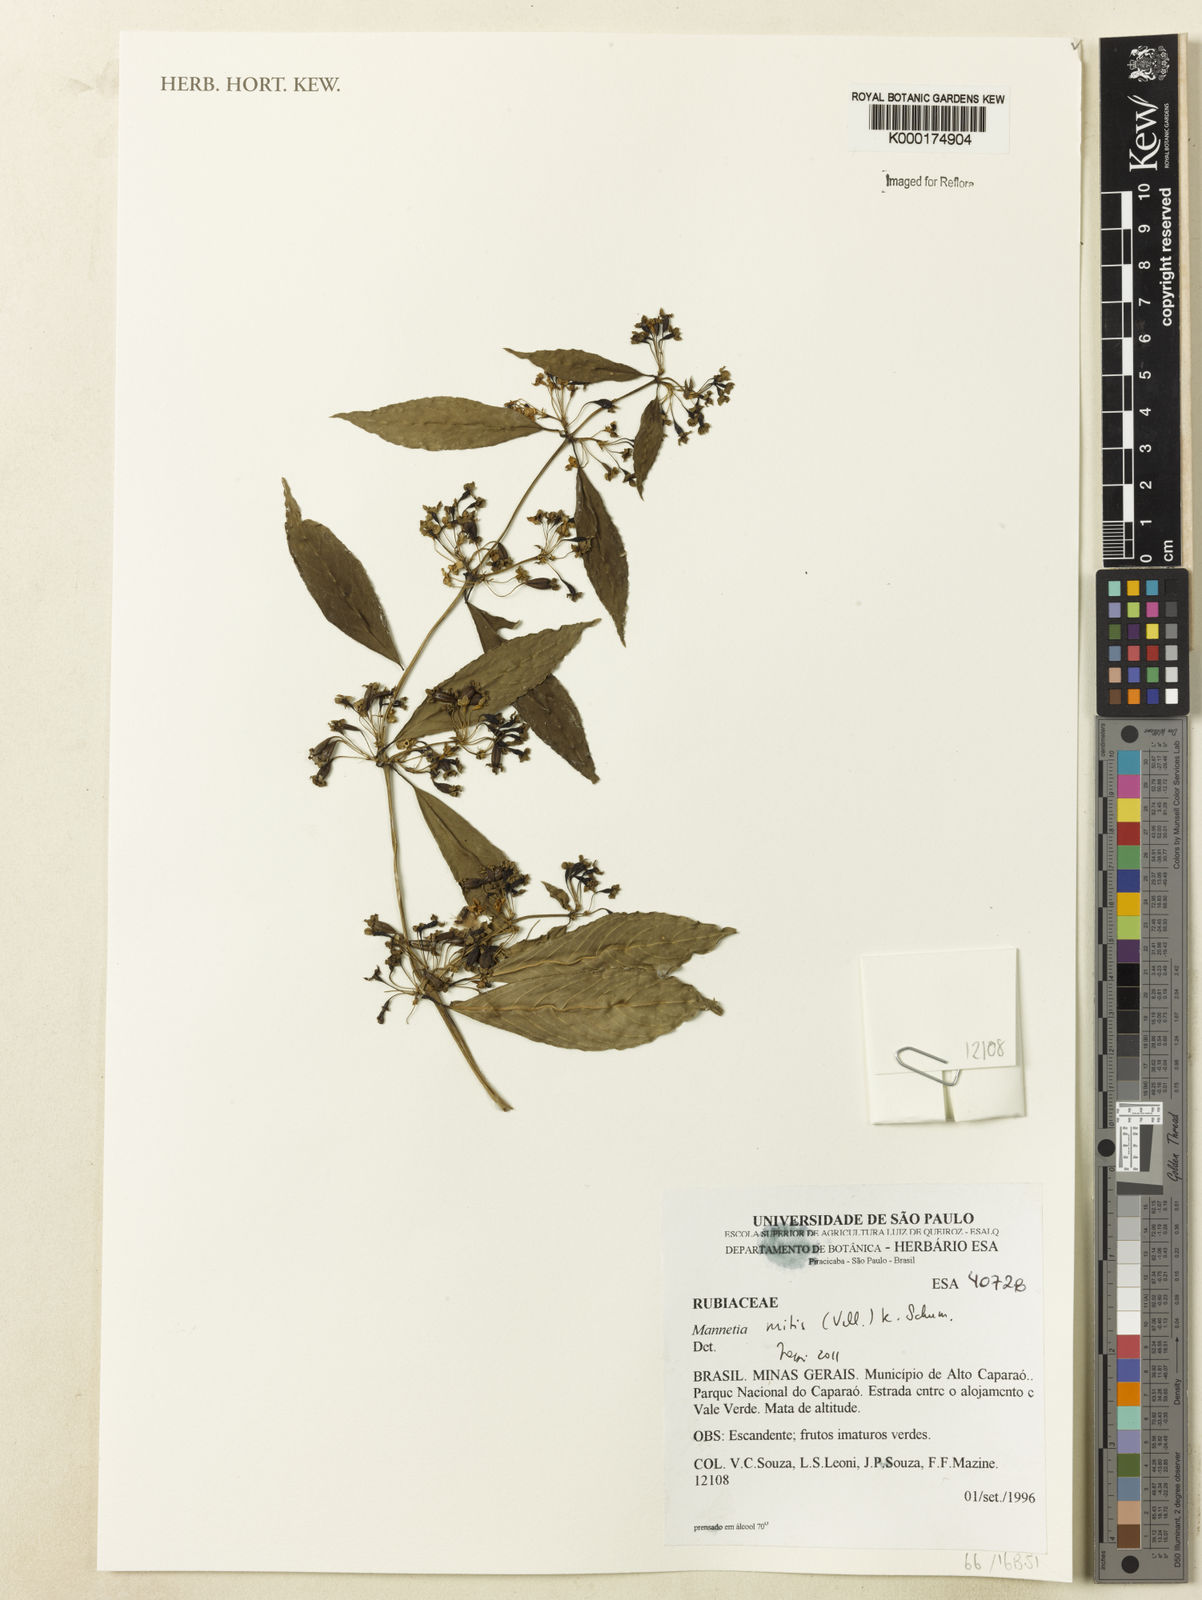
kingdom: Plantae
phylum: Tracheophyta
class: Magnoliopsida
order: Gentianales
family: Rubiaceae
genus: Manettia
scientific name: Manettia mitis
